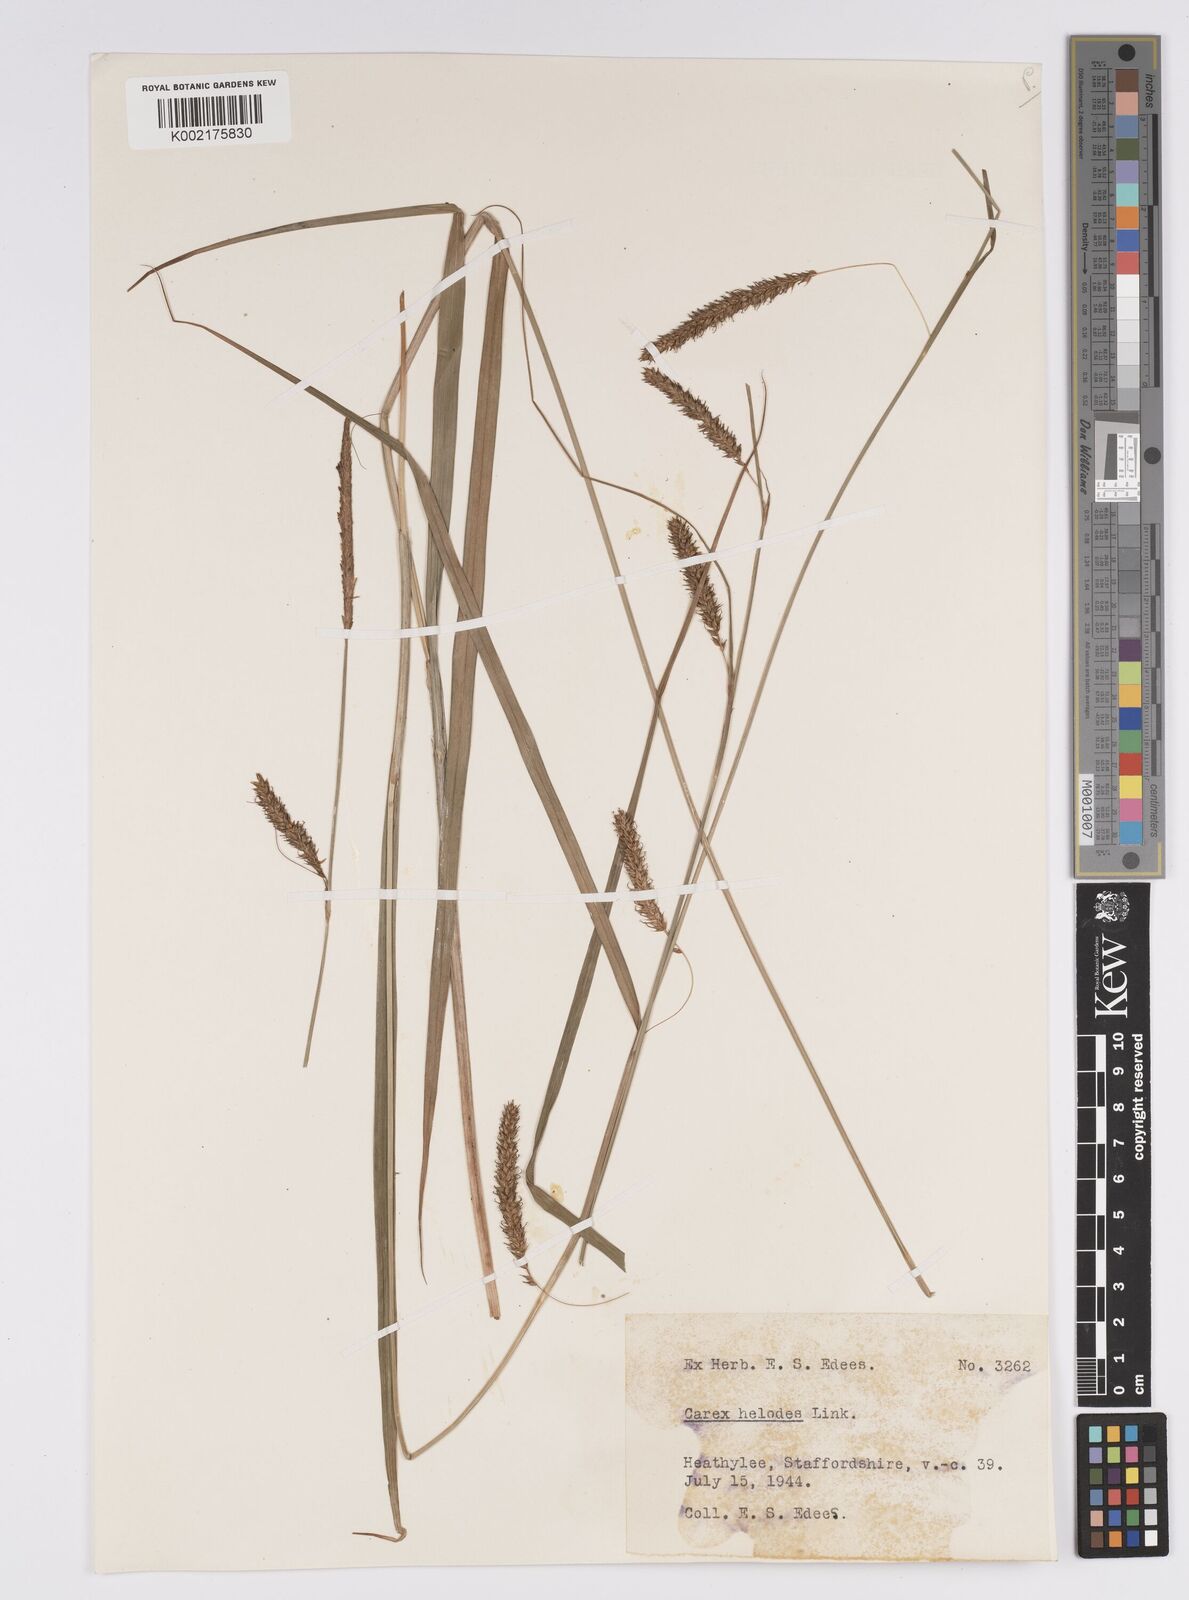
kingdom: Plantae
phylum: Tracheophyta
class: Liliopsida
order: Poales
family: Cyperaceae
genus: Carex
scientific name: Carex laevigata
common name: Smooth-stalked sedge
